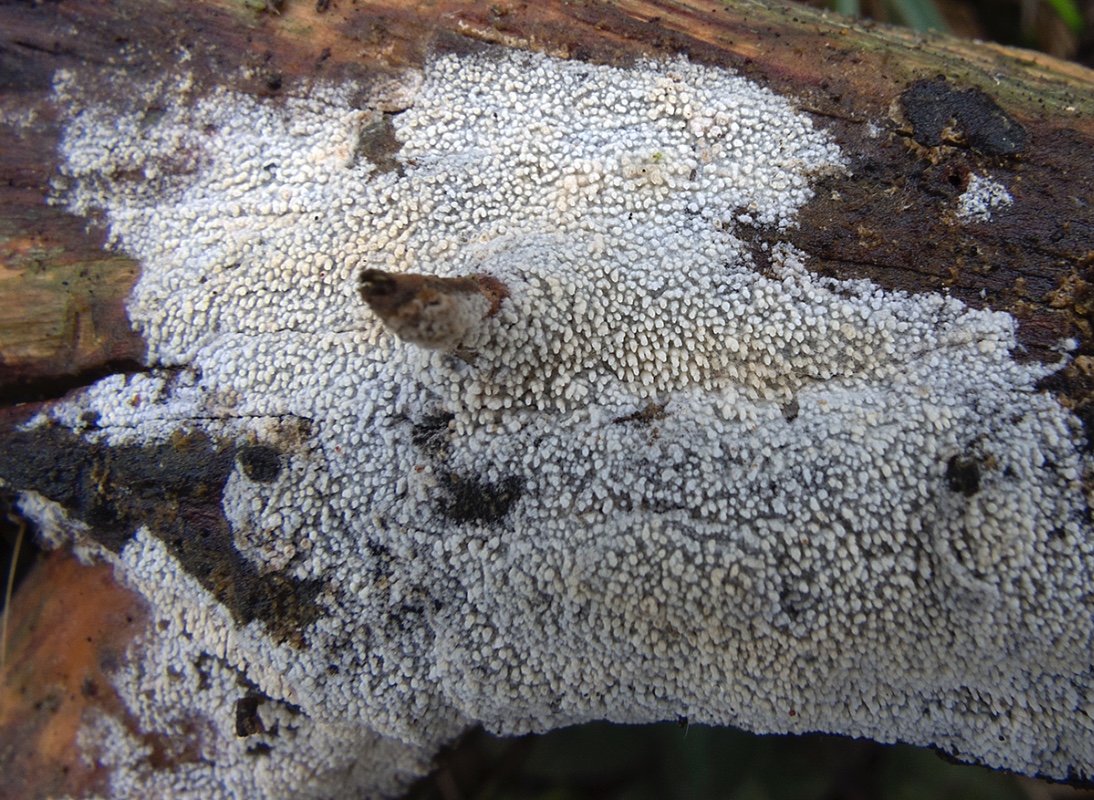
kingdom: Fungi
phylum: Basidiomycota
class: Agaricomycetes
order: Hymenochaetales
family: Hyphodontiaceae
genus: Hyphodontia
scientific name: Hyphodontia arguta
